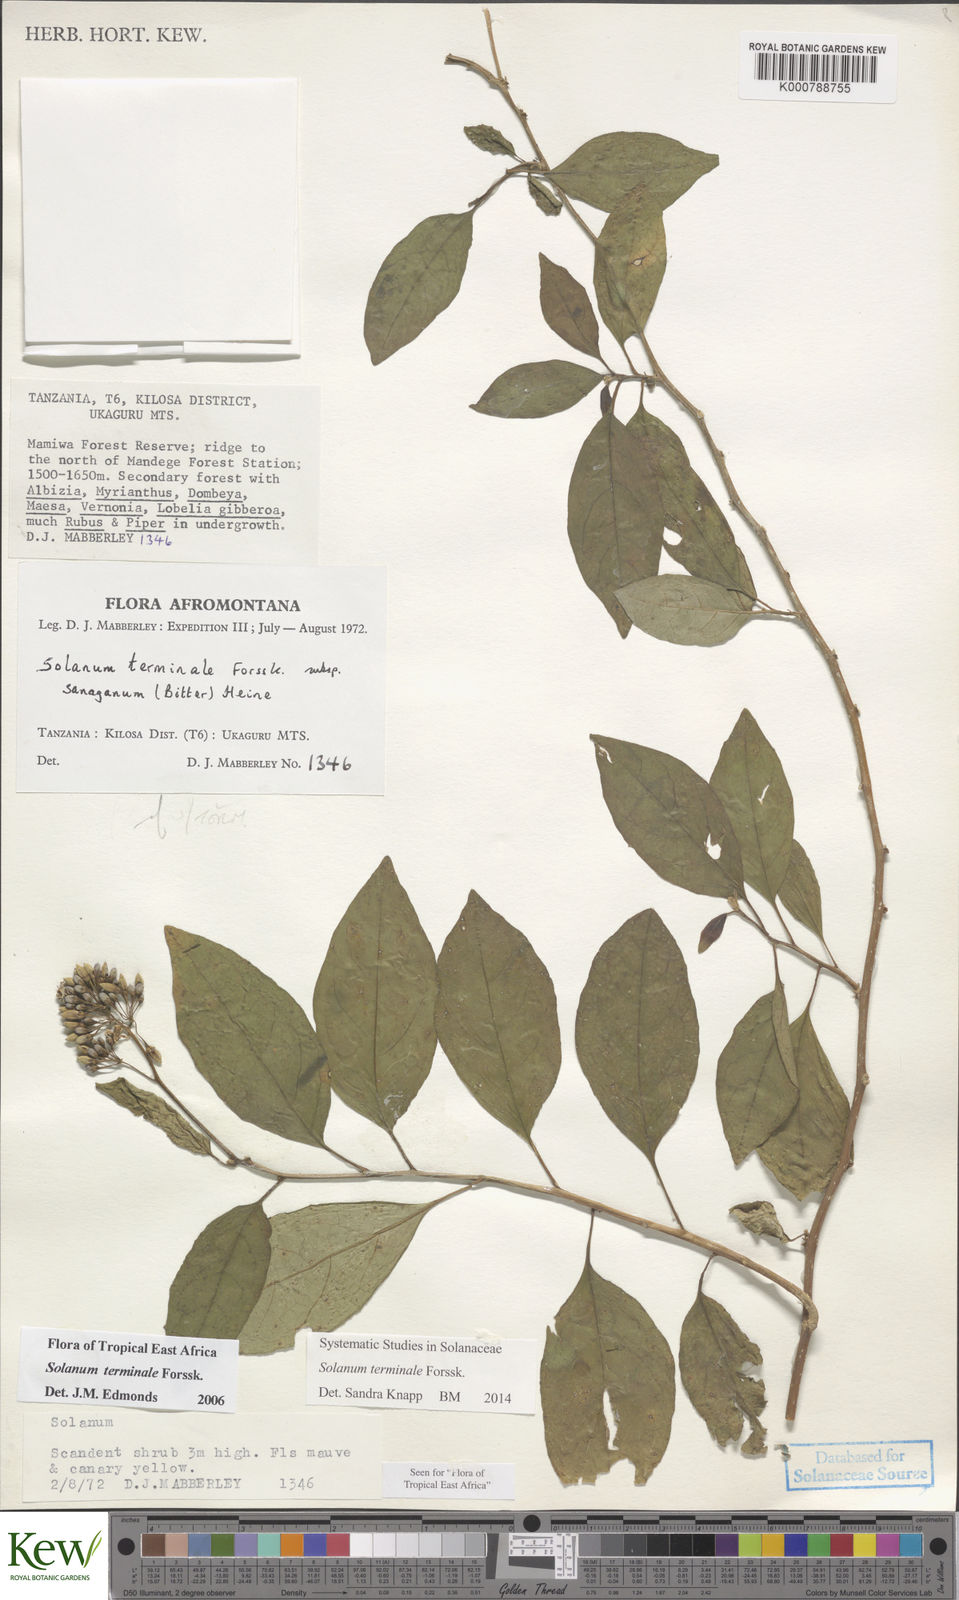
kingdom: Plantae
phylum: Tracheophyta
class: Magnoliopsida
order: Solanales
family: Solanaceae
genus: Solanum
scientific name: Solanum terminale
